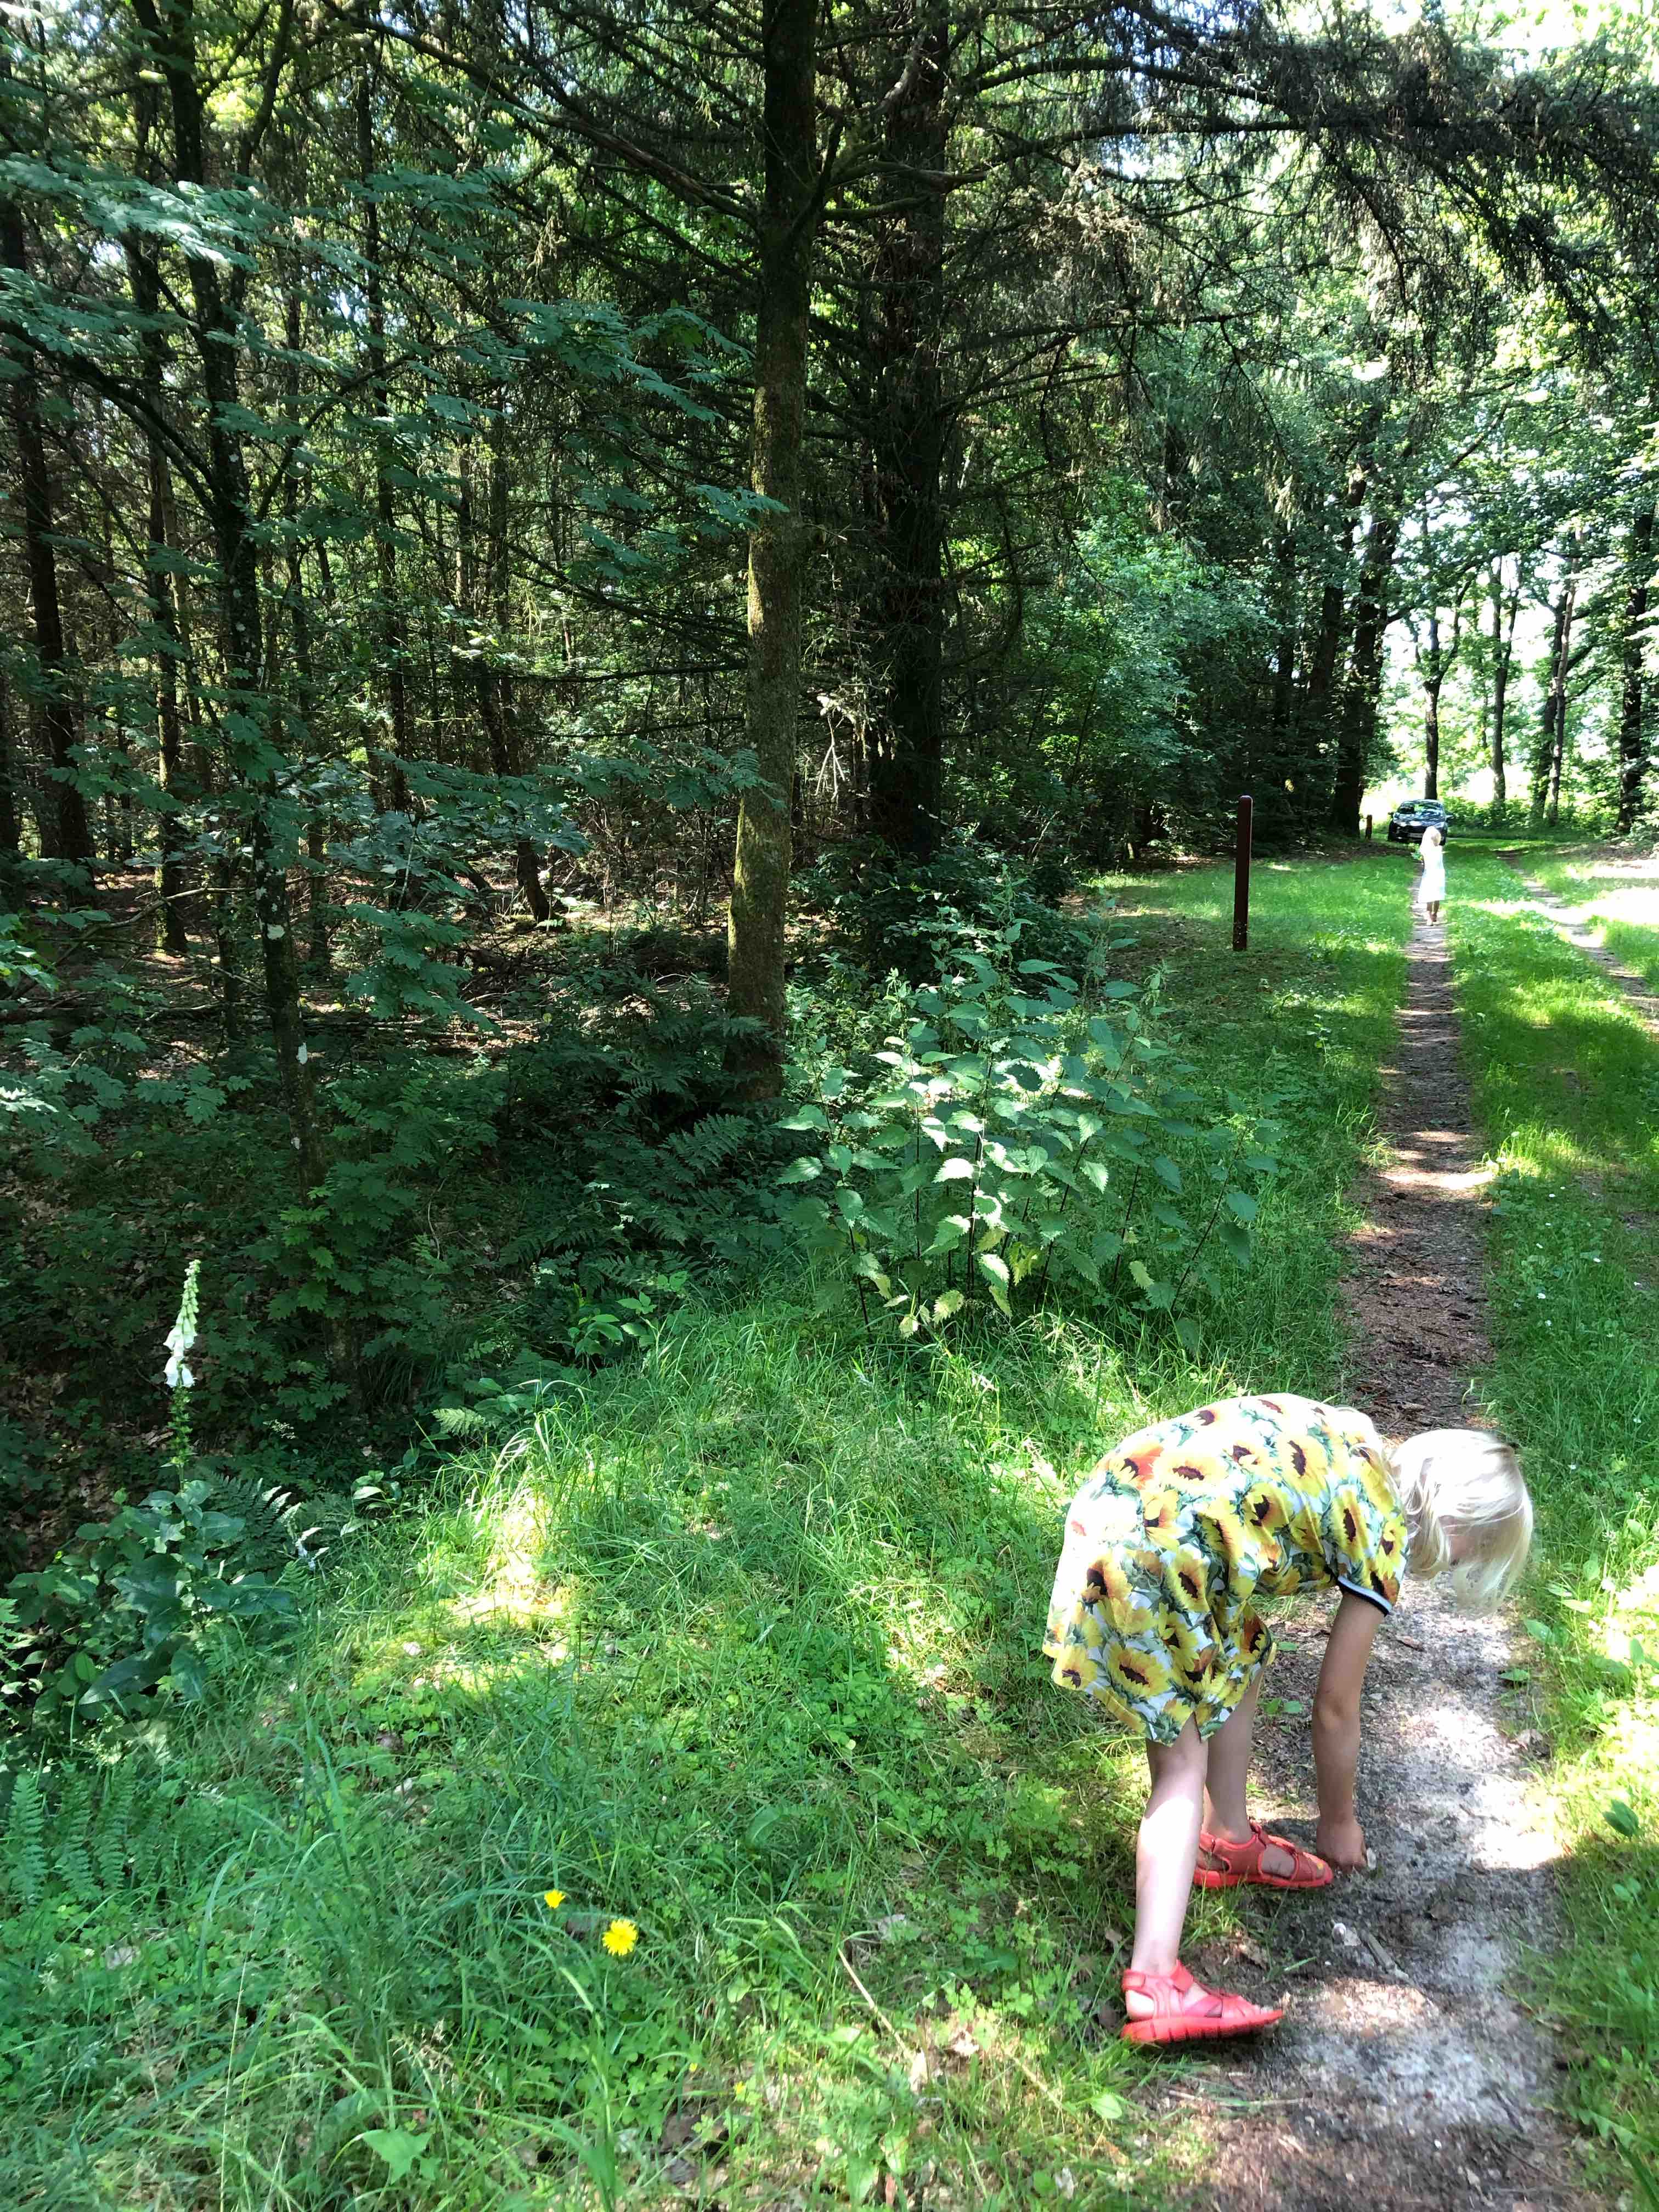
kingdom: Fungi
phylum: Basidiomycota
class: Agaricomycetes
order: Agaricales
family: Inocybaceae
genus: Inocybe
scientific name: Inocybe
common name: trævlhat
